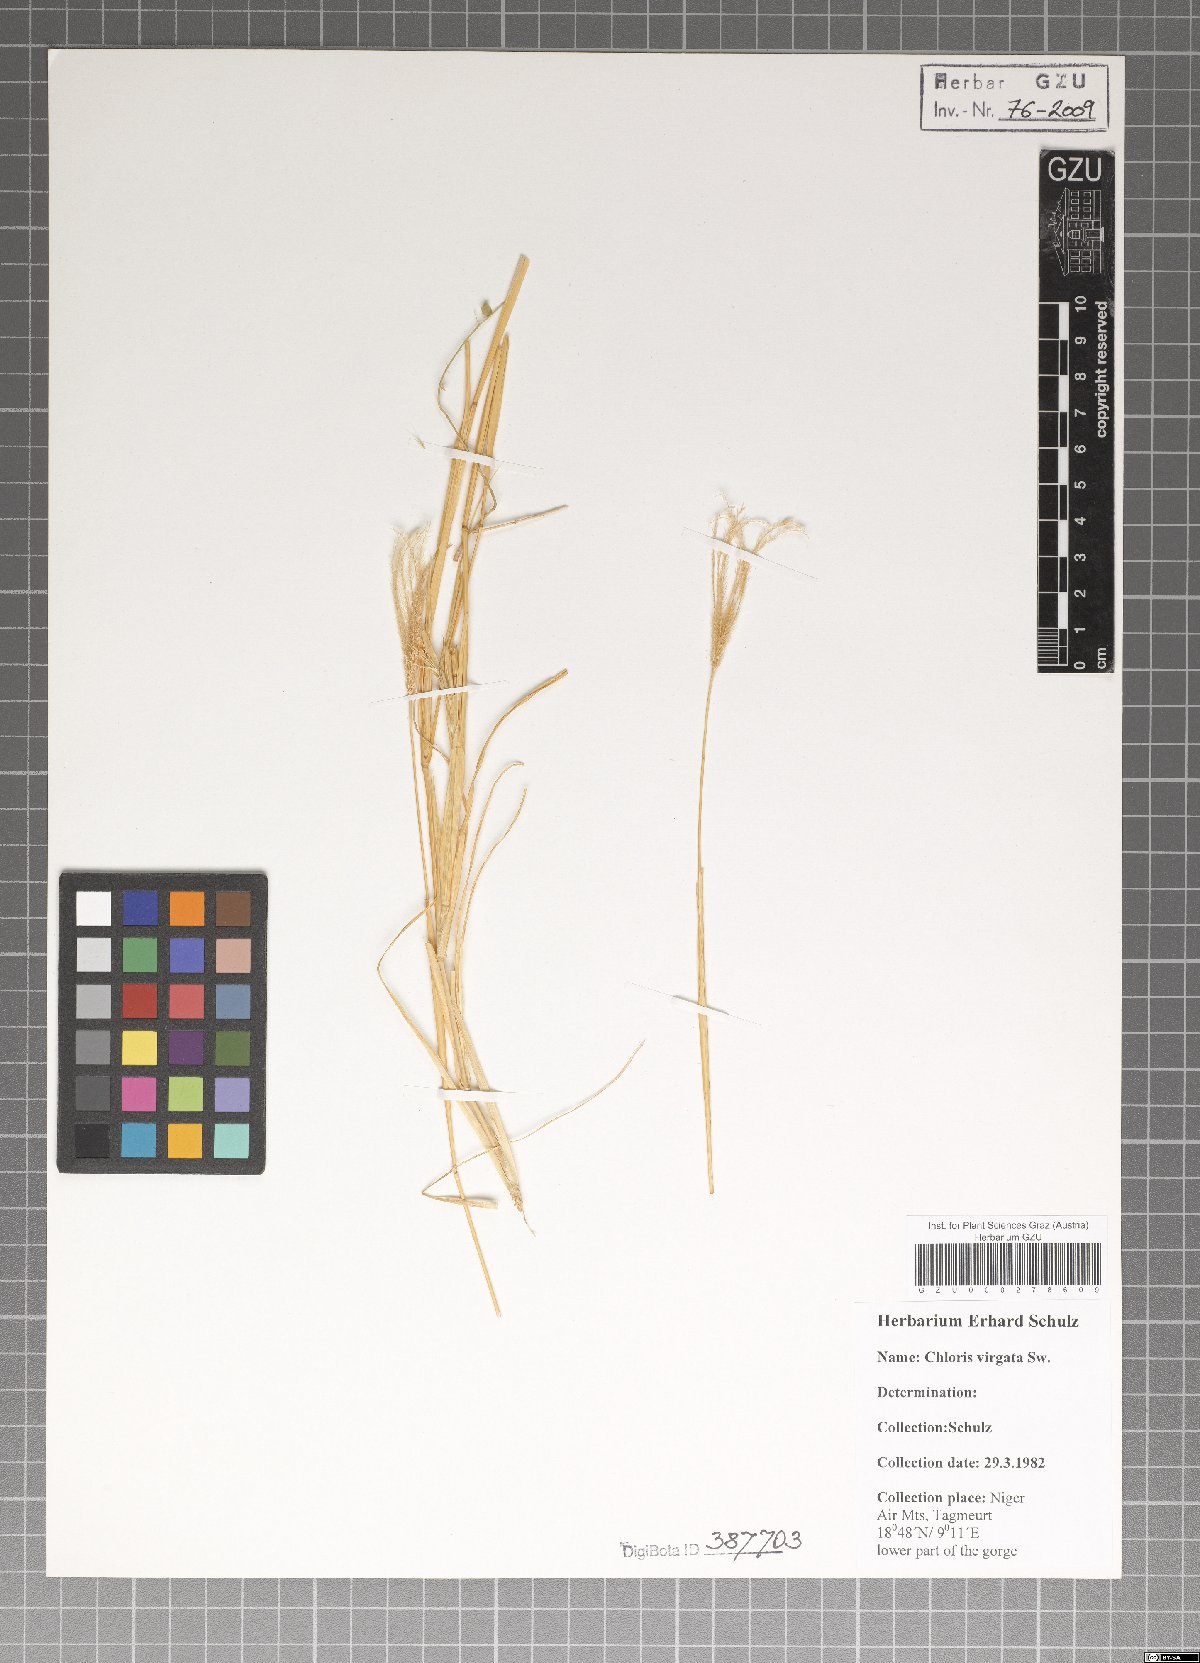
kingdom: Plantae
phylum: Tracheophyta
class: Liliopsida
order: Poales
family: Poaceae
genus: Chloris
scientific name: Chloris virgata
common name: Feathery rhodes-grass
